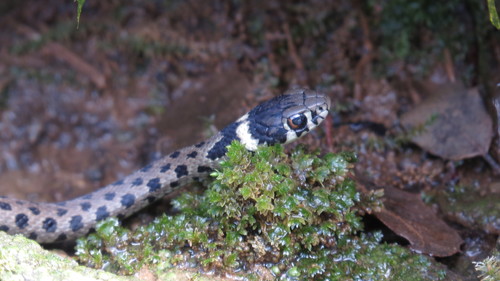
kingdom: Animalia
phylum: Chordata
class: Squamata
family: Colubridae
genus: Natrix
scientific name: Natrix astreptophora
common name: Red-eyed grass snake
